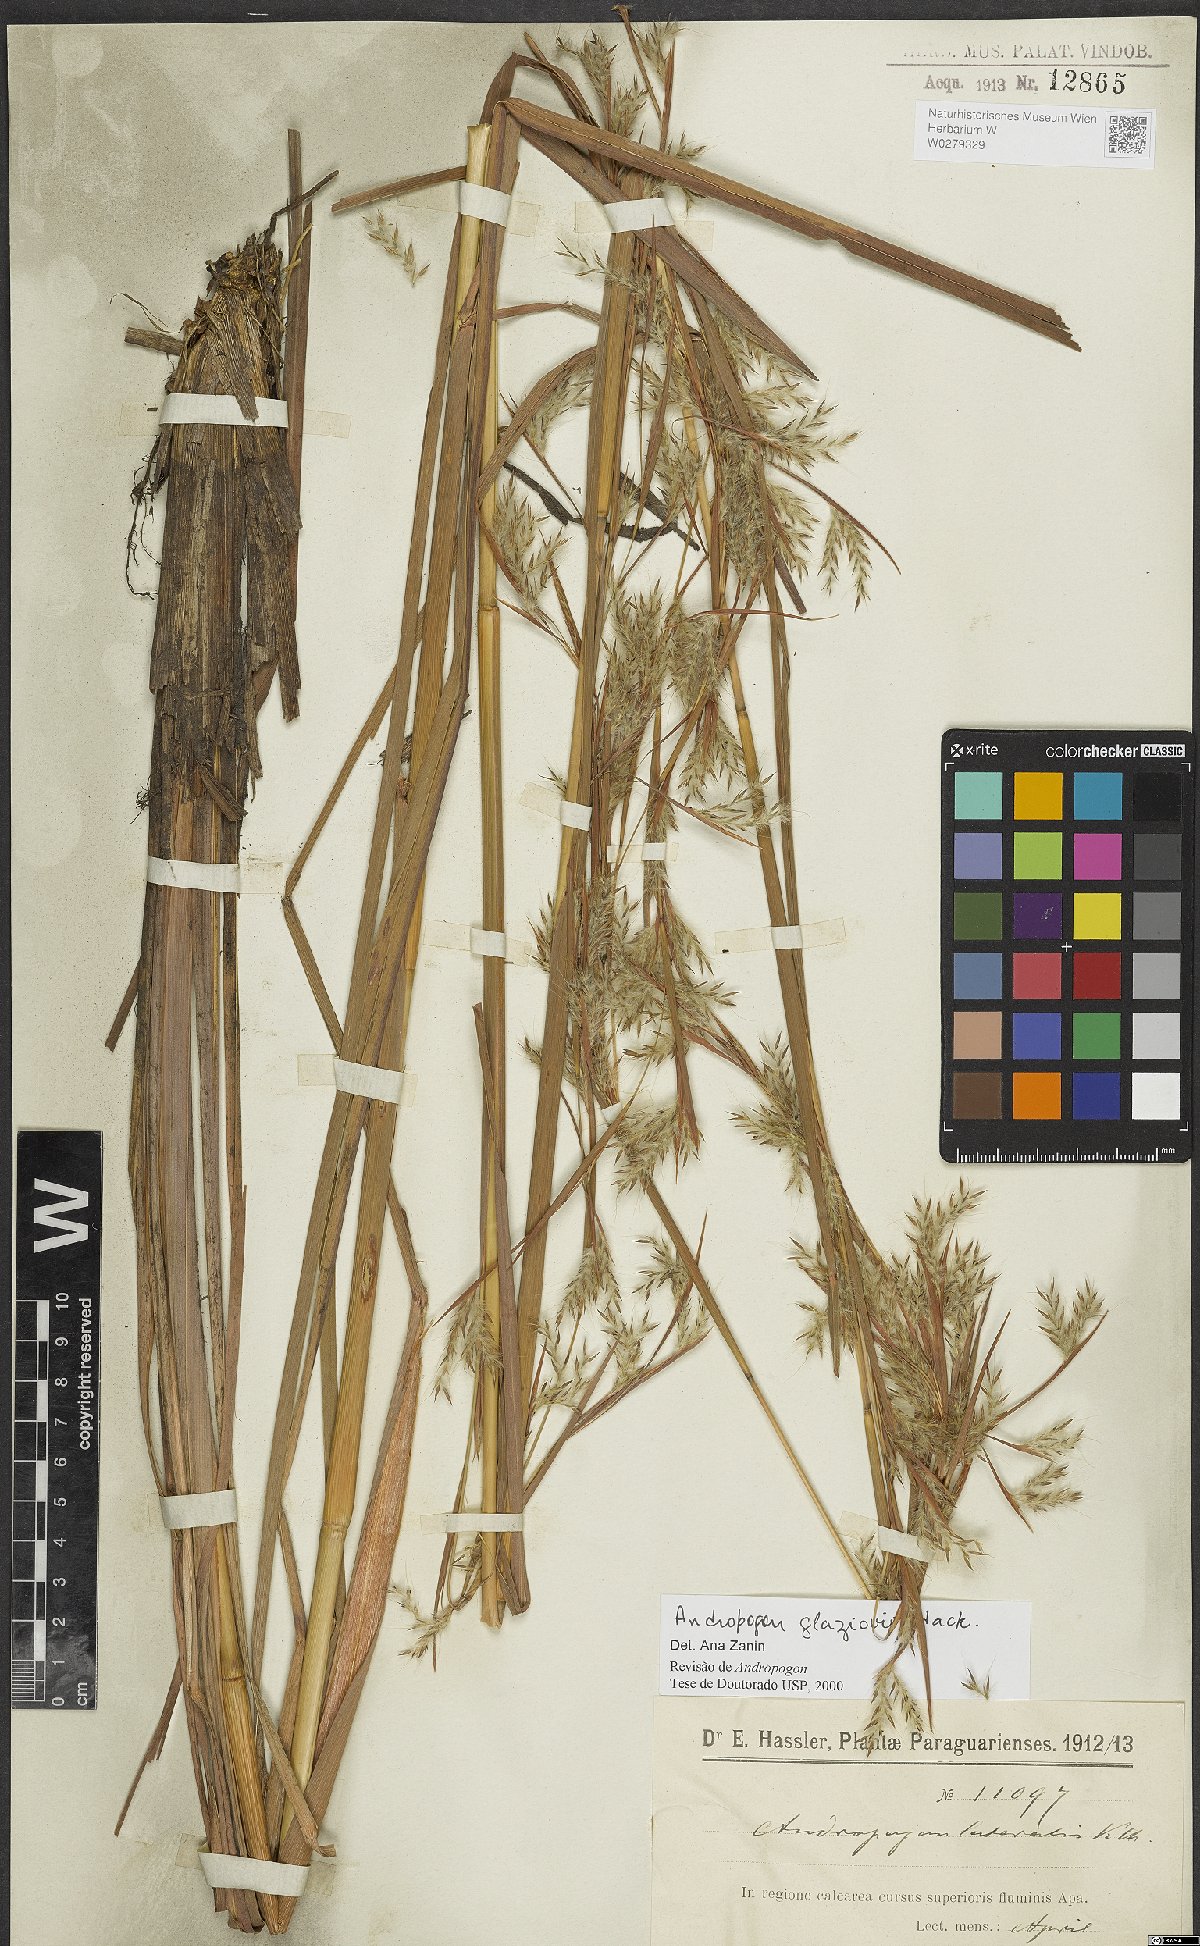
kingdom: Plantae
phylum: Tracheophyta
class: Liliopsida
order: Poales
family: Poaceae
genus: Andropogon
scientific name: Andropogon glaziovii
